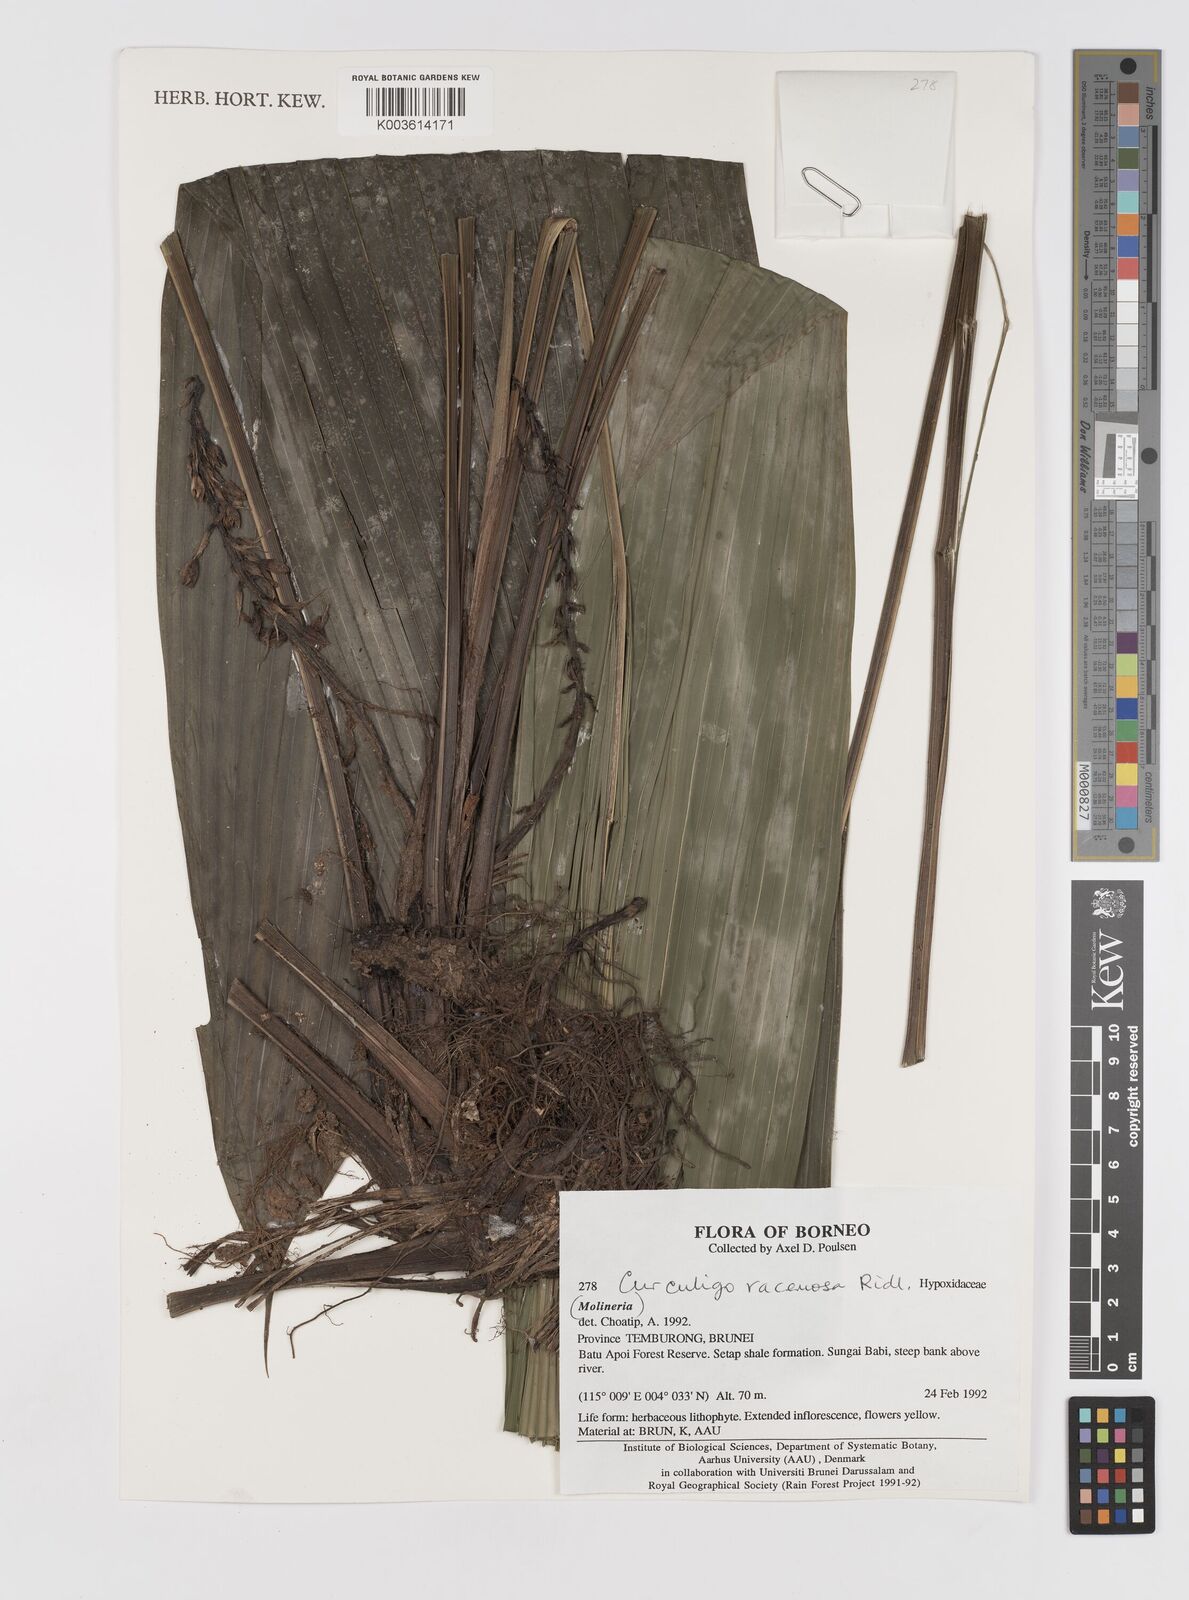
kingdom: Plantae
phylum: Tracheophyta
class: Liliopsida
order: Asparagales
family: Hypoxidaceae
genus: Curculigo
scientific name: Curculigo racemosa
